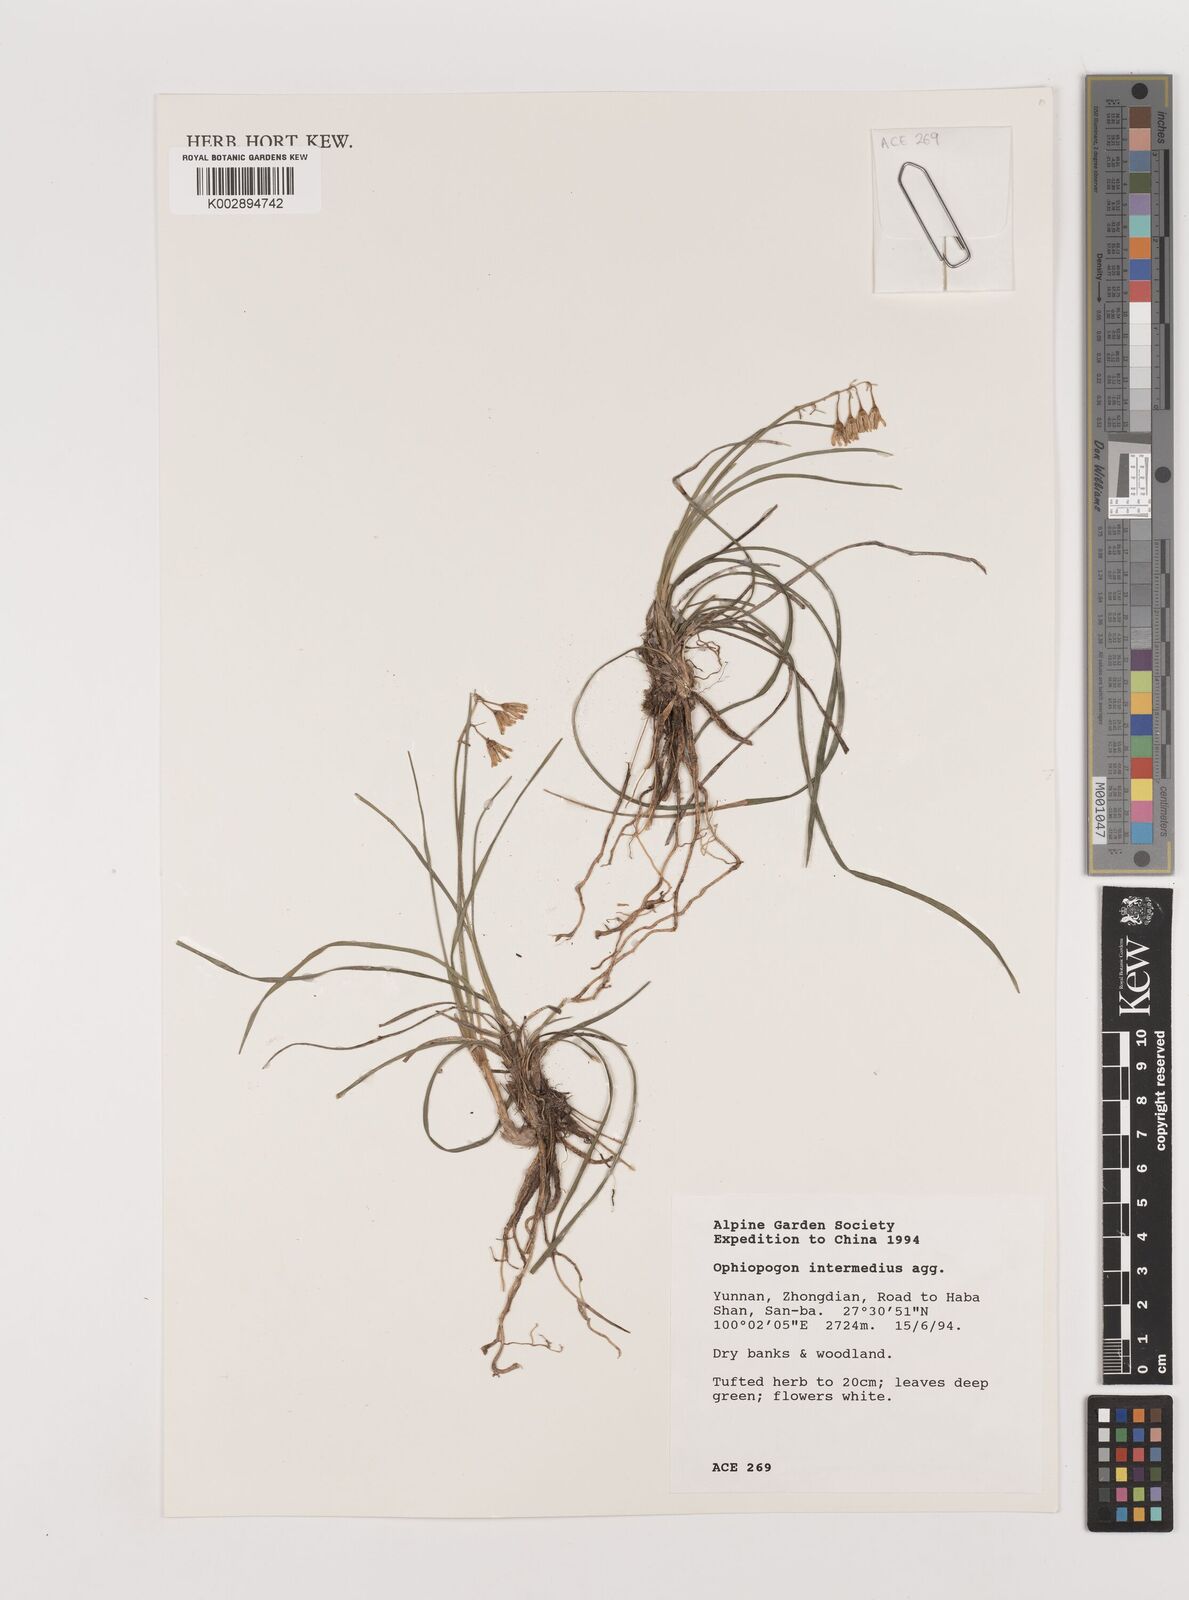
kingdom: Plantae
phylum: Tracheophyta
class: Liliopsida
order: Asparagales
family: Asparagaceae
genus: Ophiopogon
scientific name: Ophiopogon intermedius
